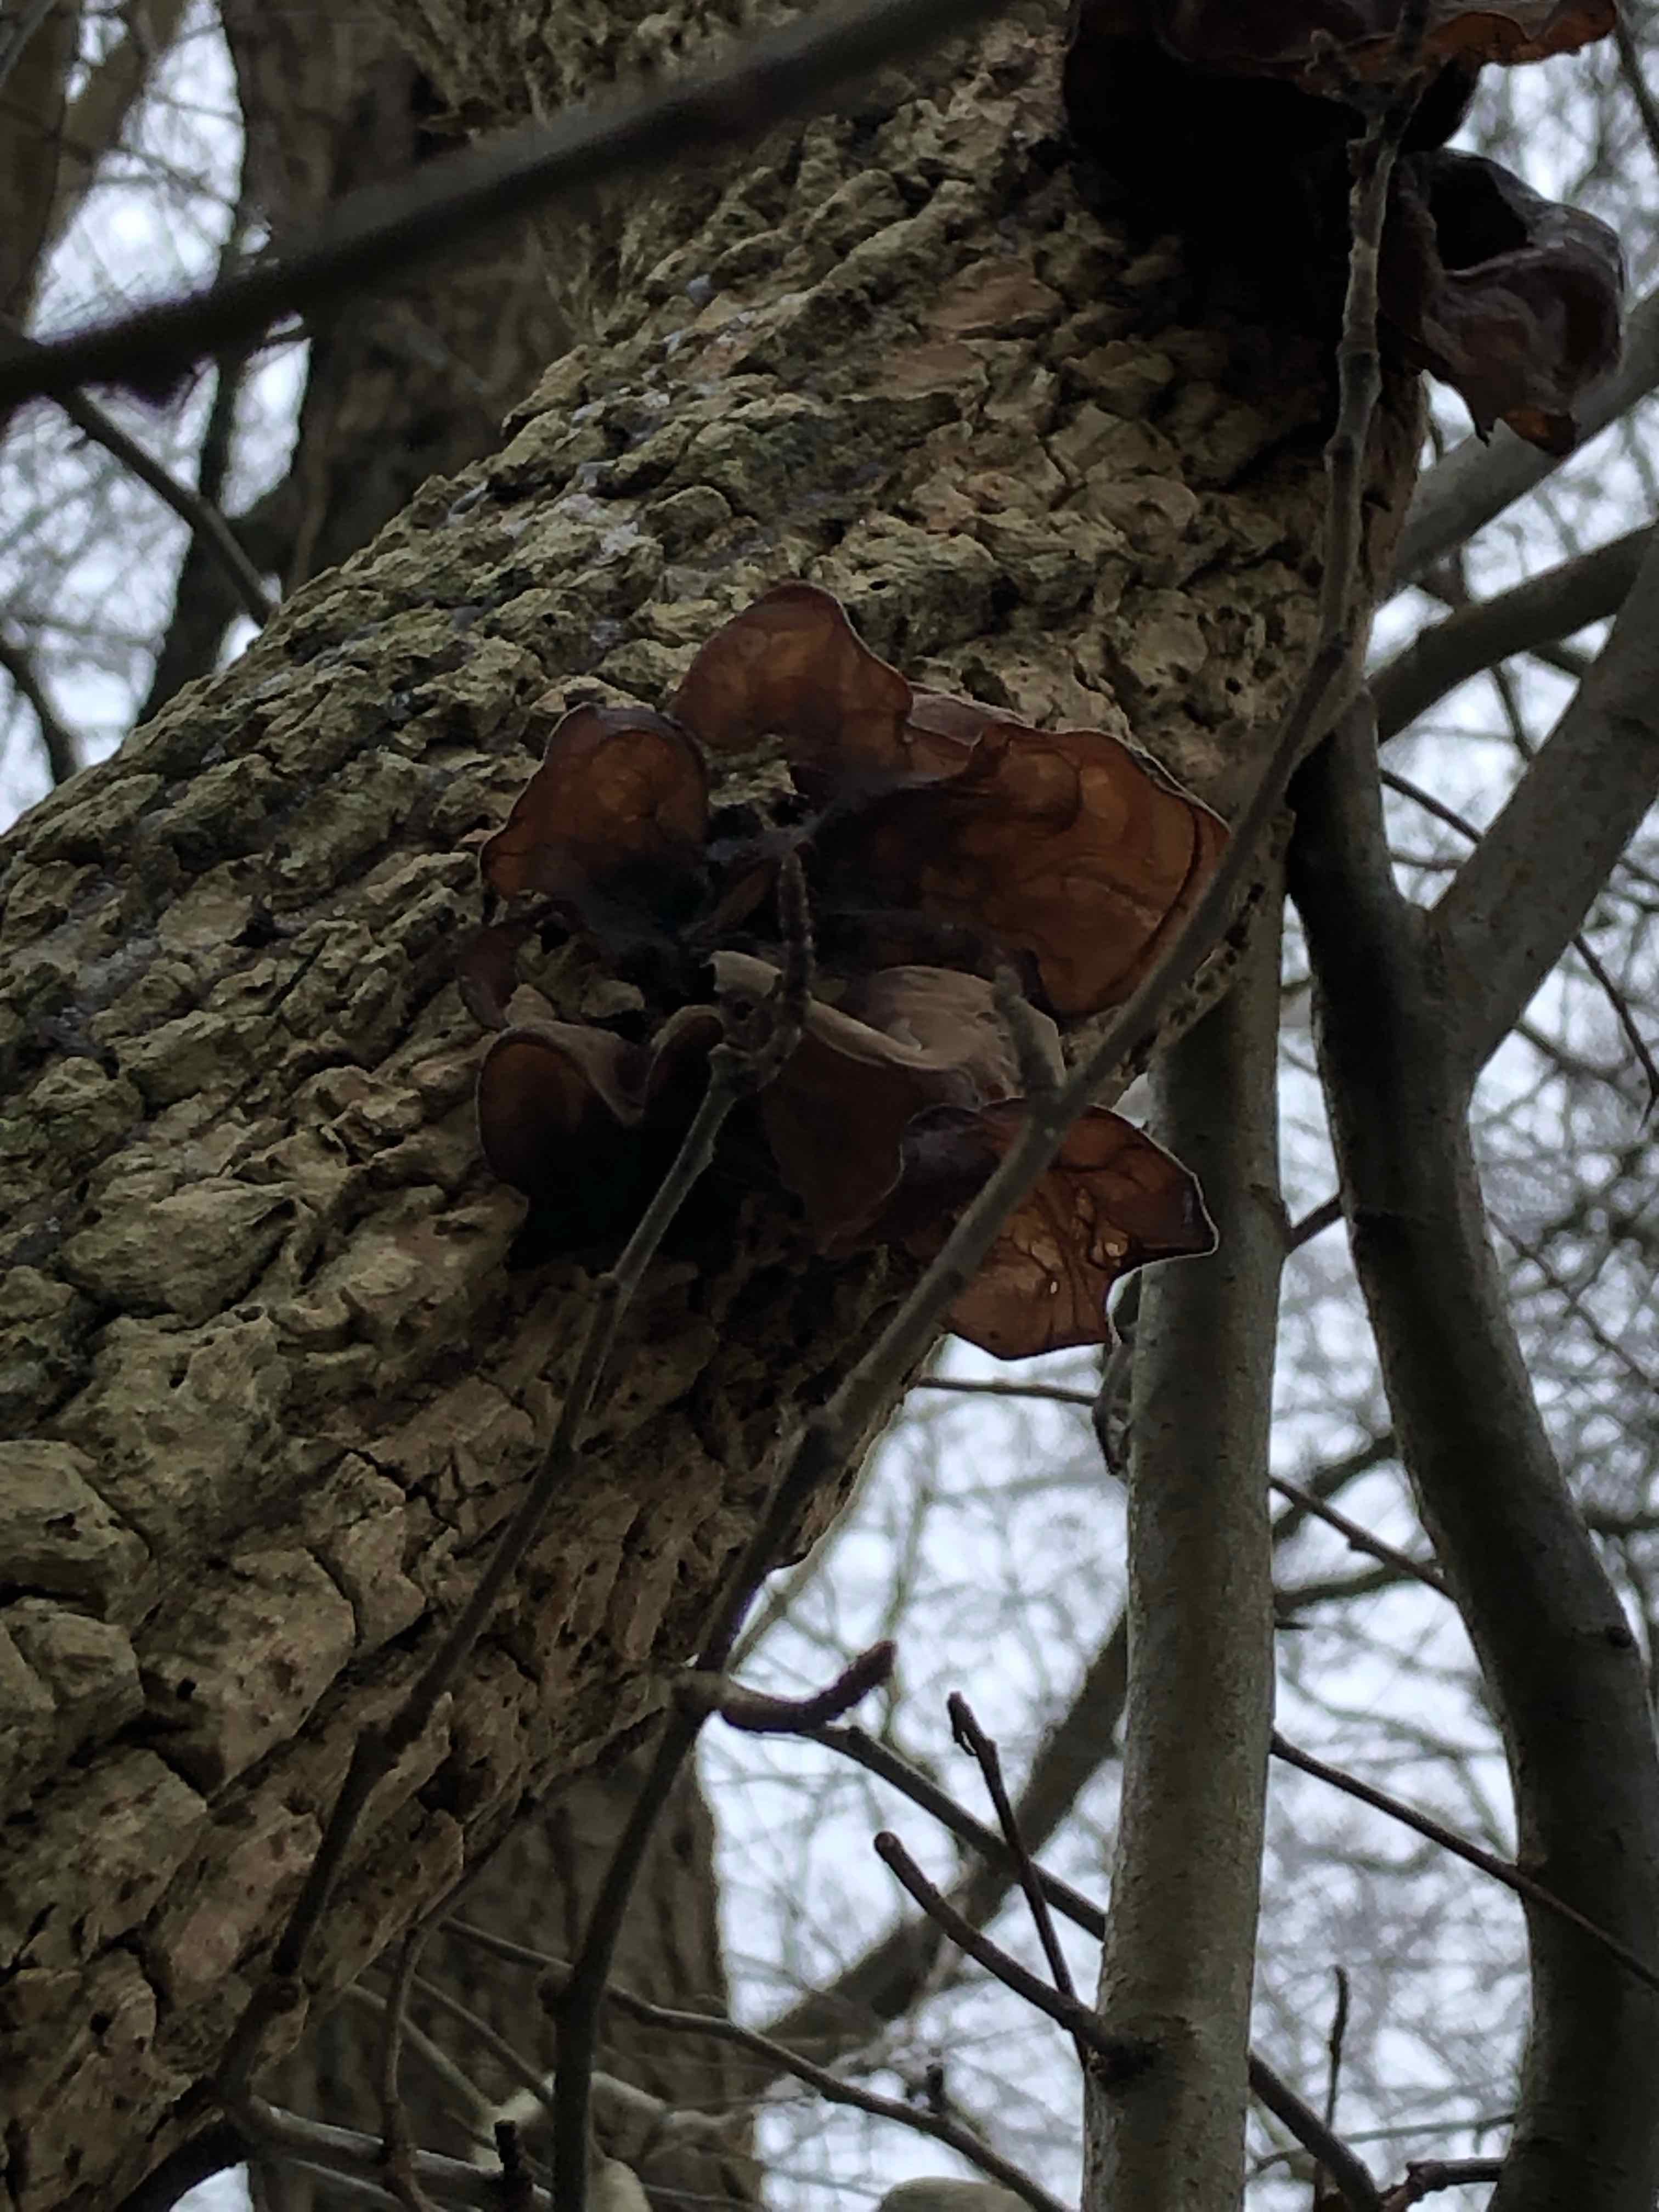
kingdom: Fungi
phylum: Basidiomycota
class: Agaricomycetes
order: Auriculariales
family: Auriculariaceae
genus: Auricularia
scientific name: Auricularia auricula-judae
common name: almindelig judasøre
